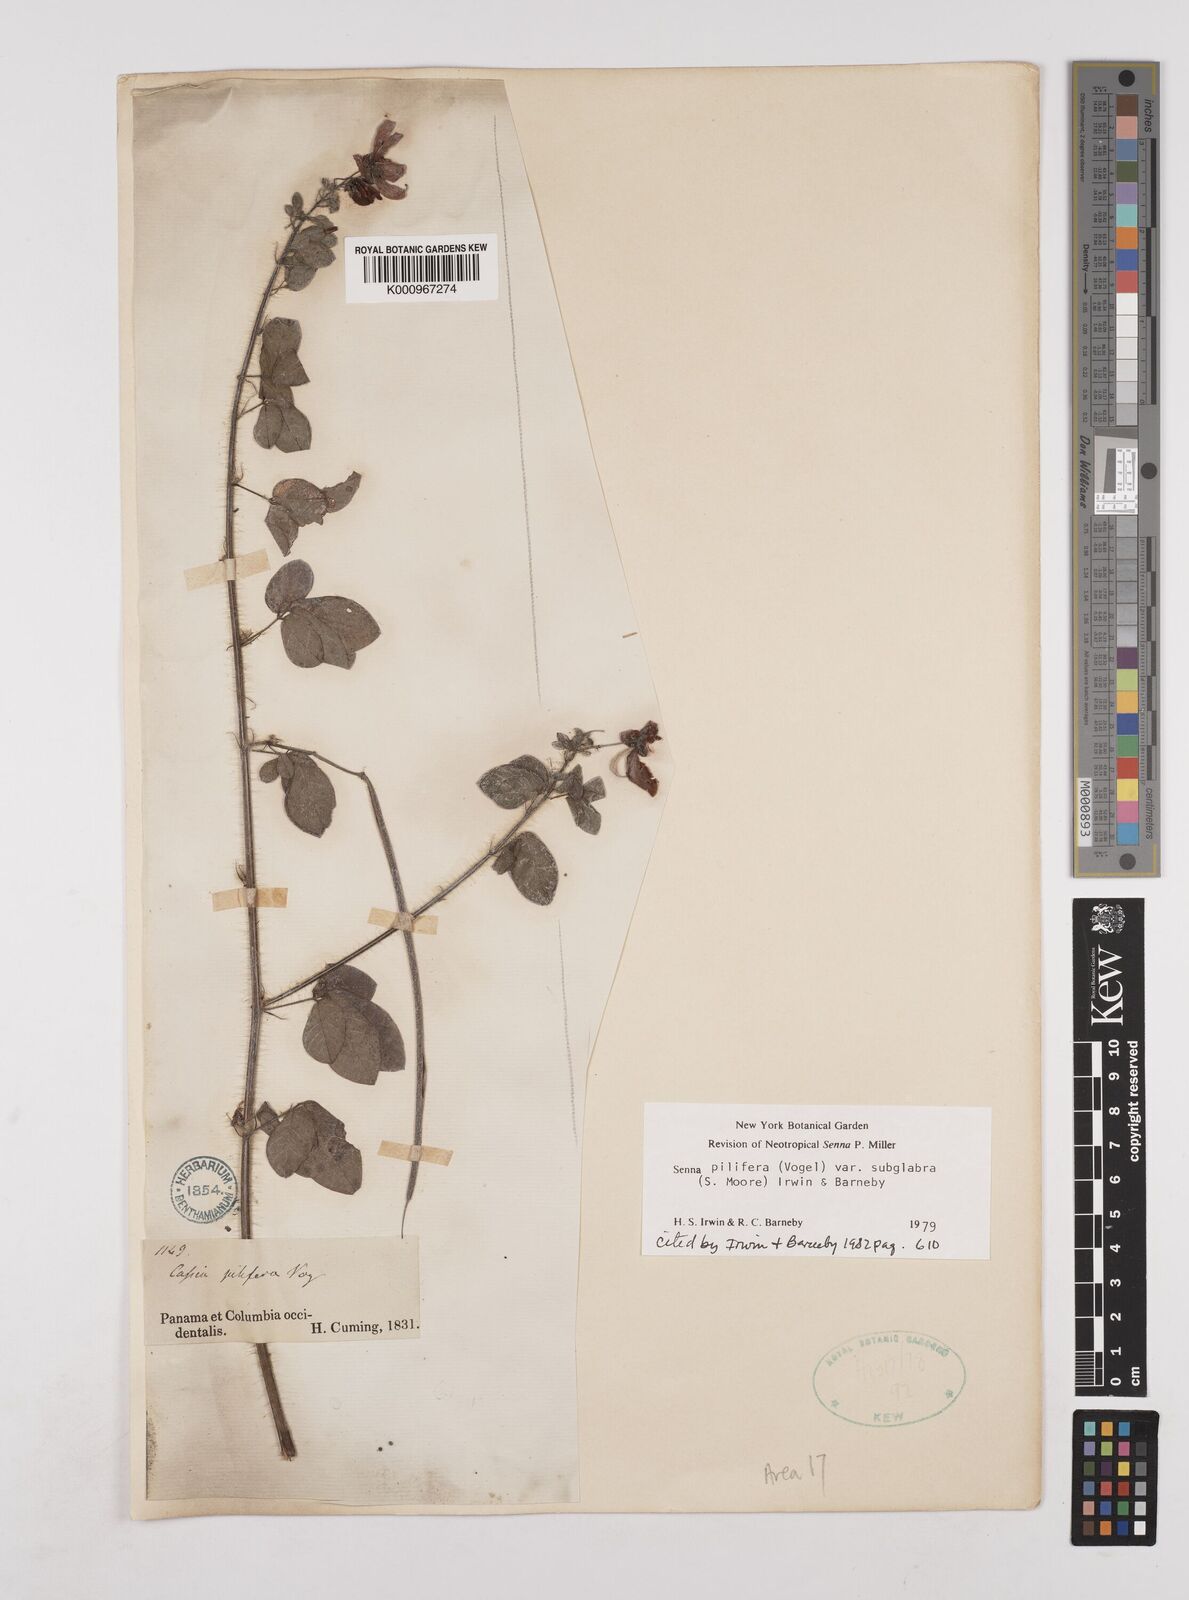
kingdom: Plantae
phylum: Tracheophyta
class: Magnoliopsida
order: Fabales
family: Fabaceae
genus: Senna
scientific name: Senna pilifera
